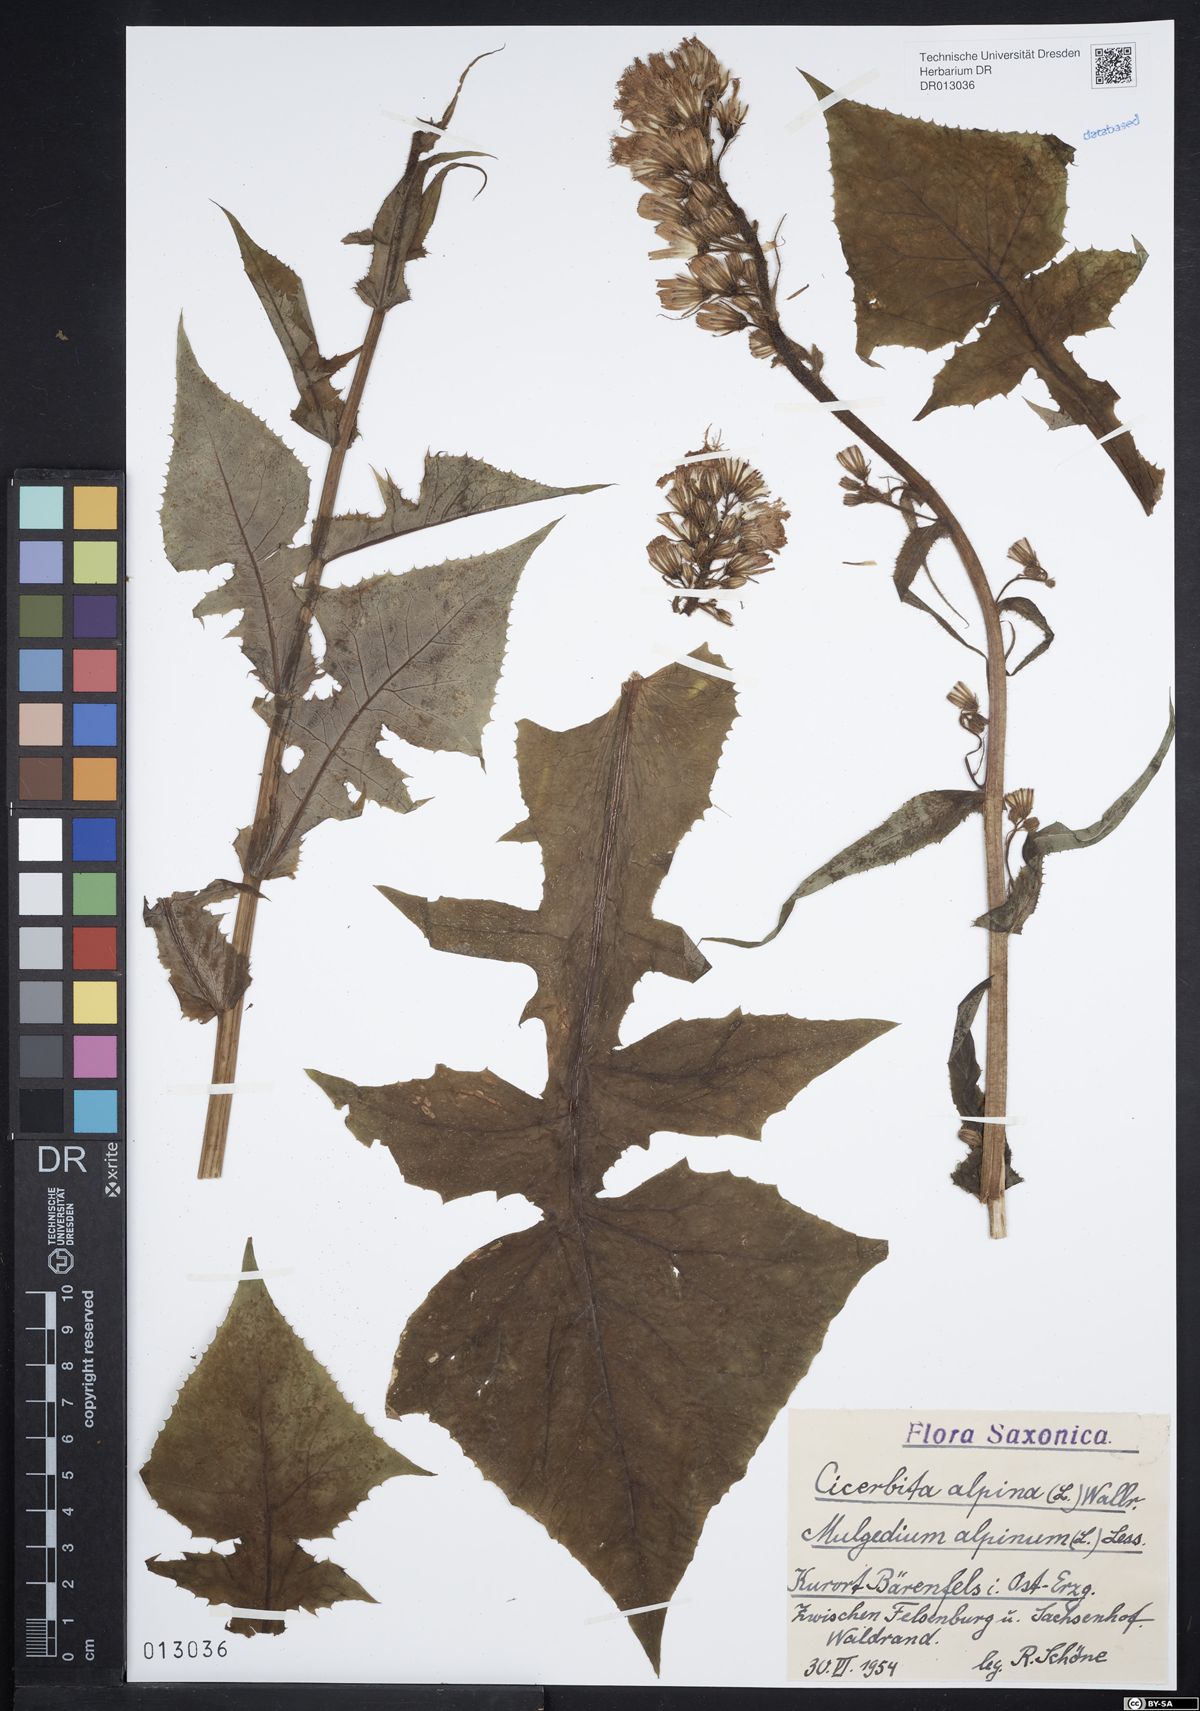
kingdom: Plantae
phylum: Tracheophyta
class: Magnoliopsida
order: Asterales
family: Asteraceae
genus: Cicerbita
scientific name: Cicerbita alpina
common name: Alpine blue-sow-thistle
